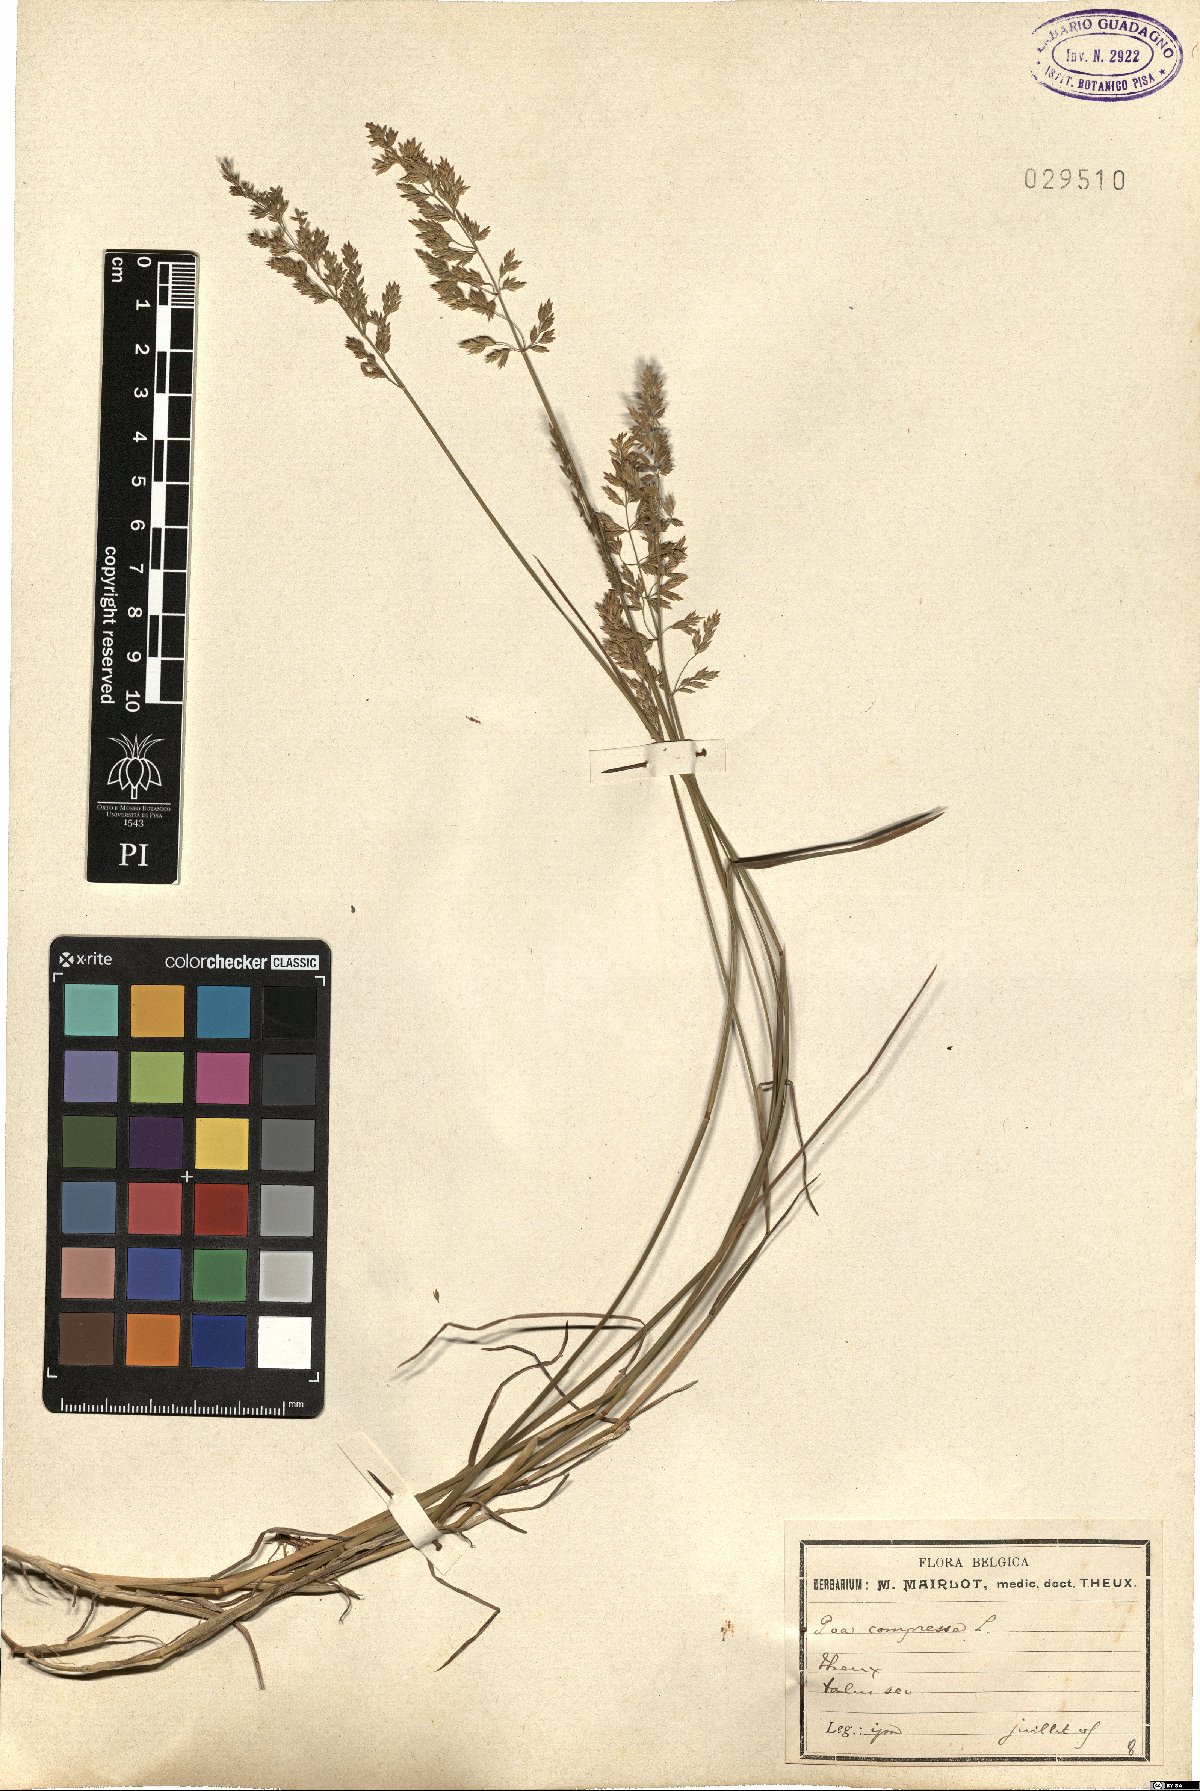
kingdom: Plantae
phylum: Tracheophyta
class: Liliopsida
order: Poales
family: Poaceae
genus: Poa
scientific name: Poa compressa
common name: Canada bluegrass
